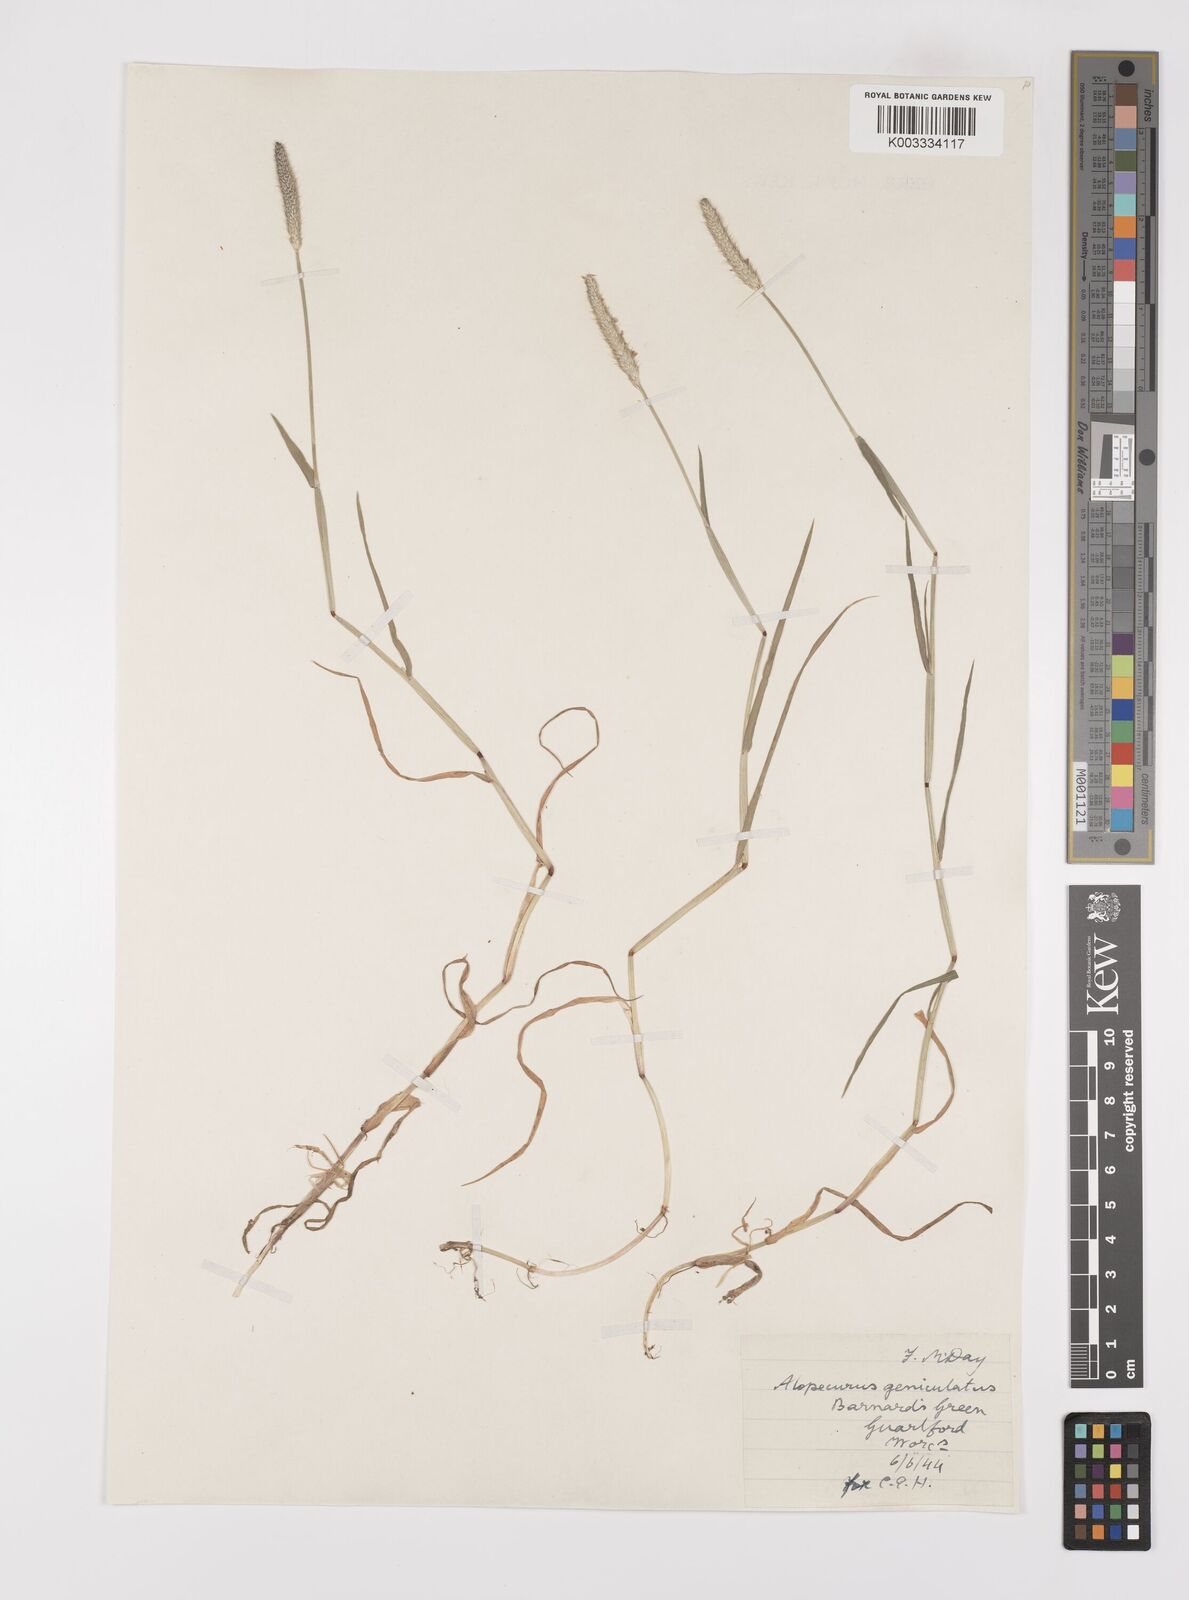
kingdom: Plantae
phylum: Tracheophyta
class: Liliopsida
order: Poales
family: Poaceae
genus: Alopecurus
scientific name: Alopecurus geniculatus
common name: Water foxtail
